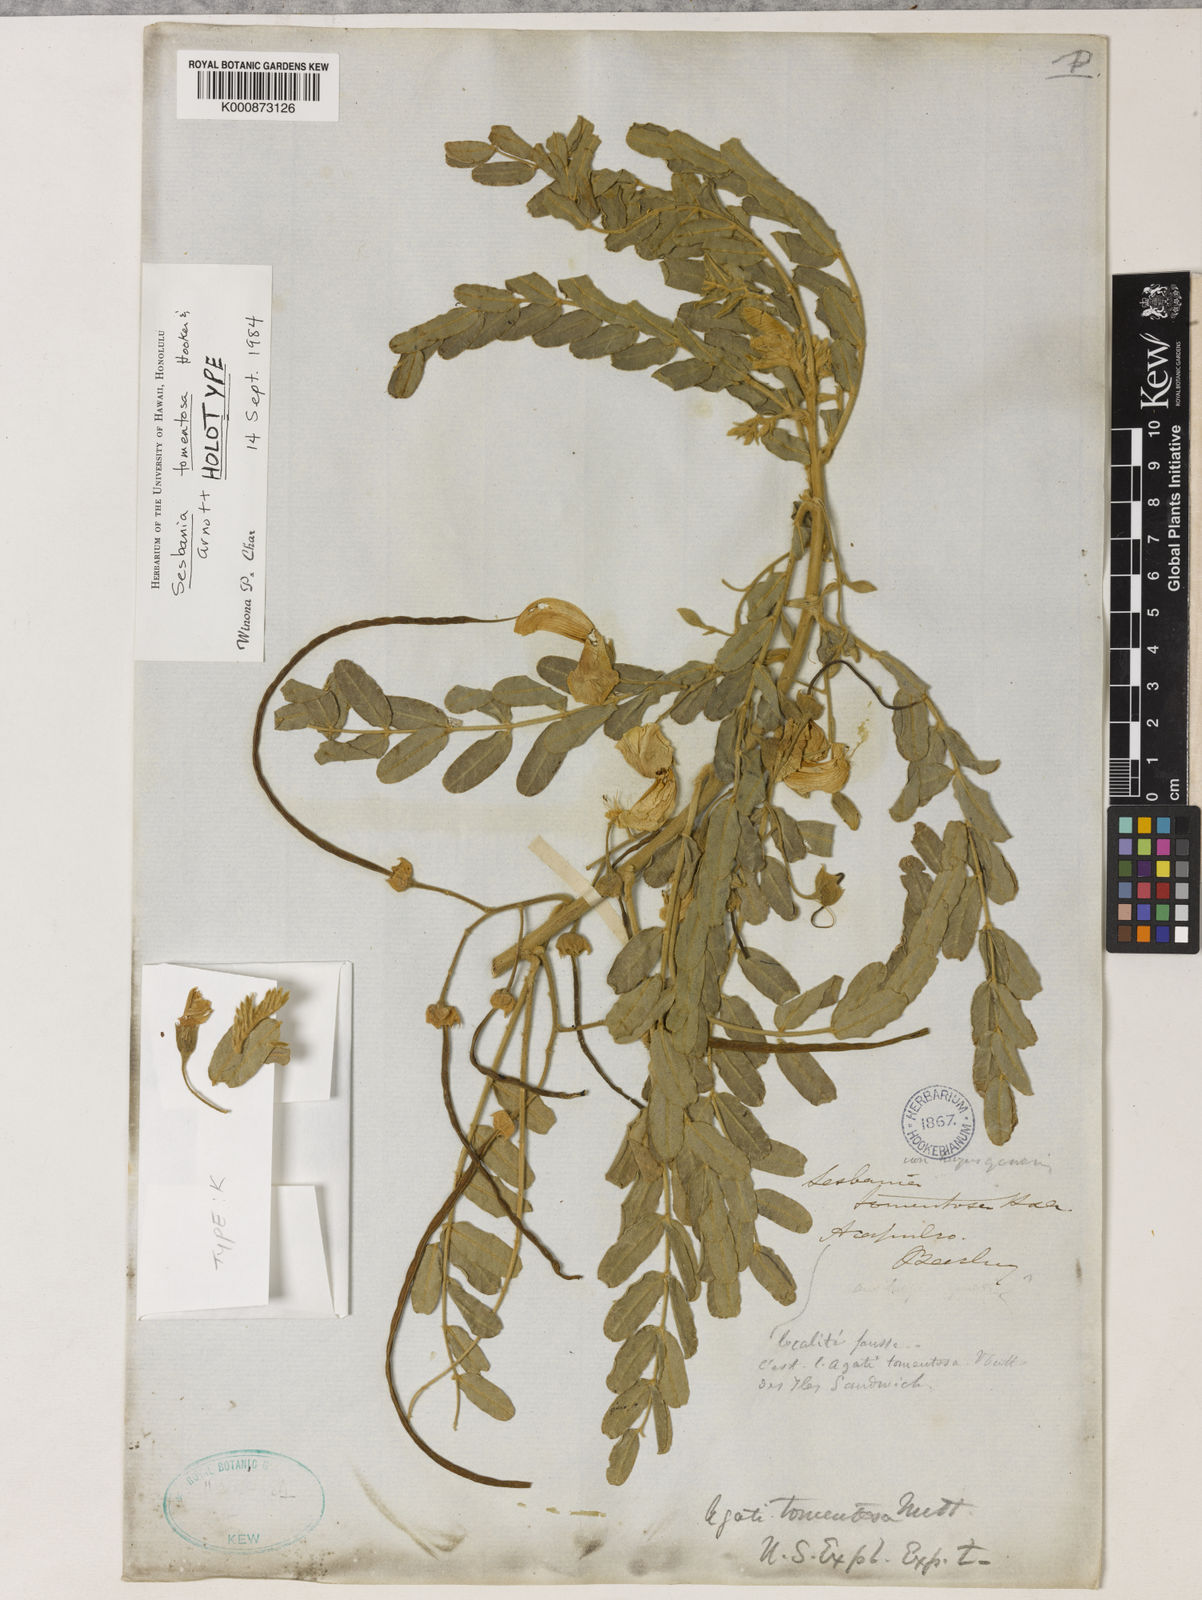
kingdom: Plantae
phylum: Tracheophyta
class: Magnoliopsida
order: Fabales
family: Fabaceae
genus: Sesbania
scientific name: Sesbania tomentosa
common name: `ohai
